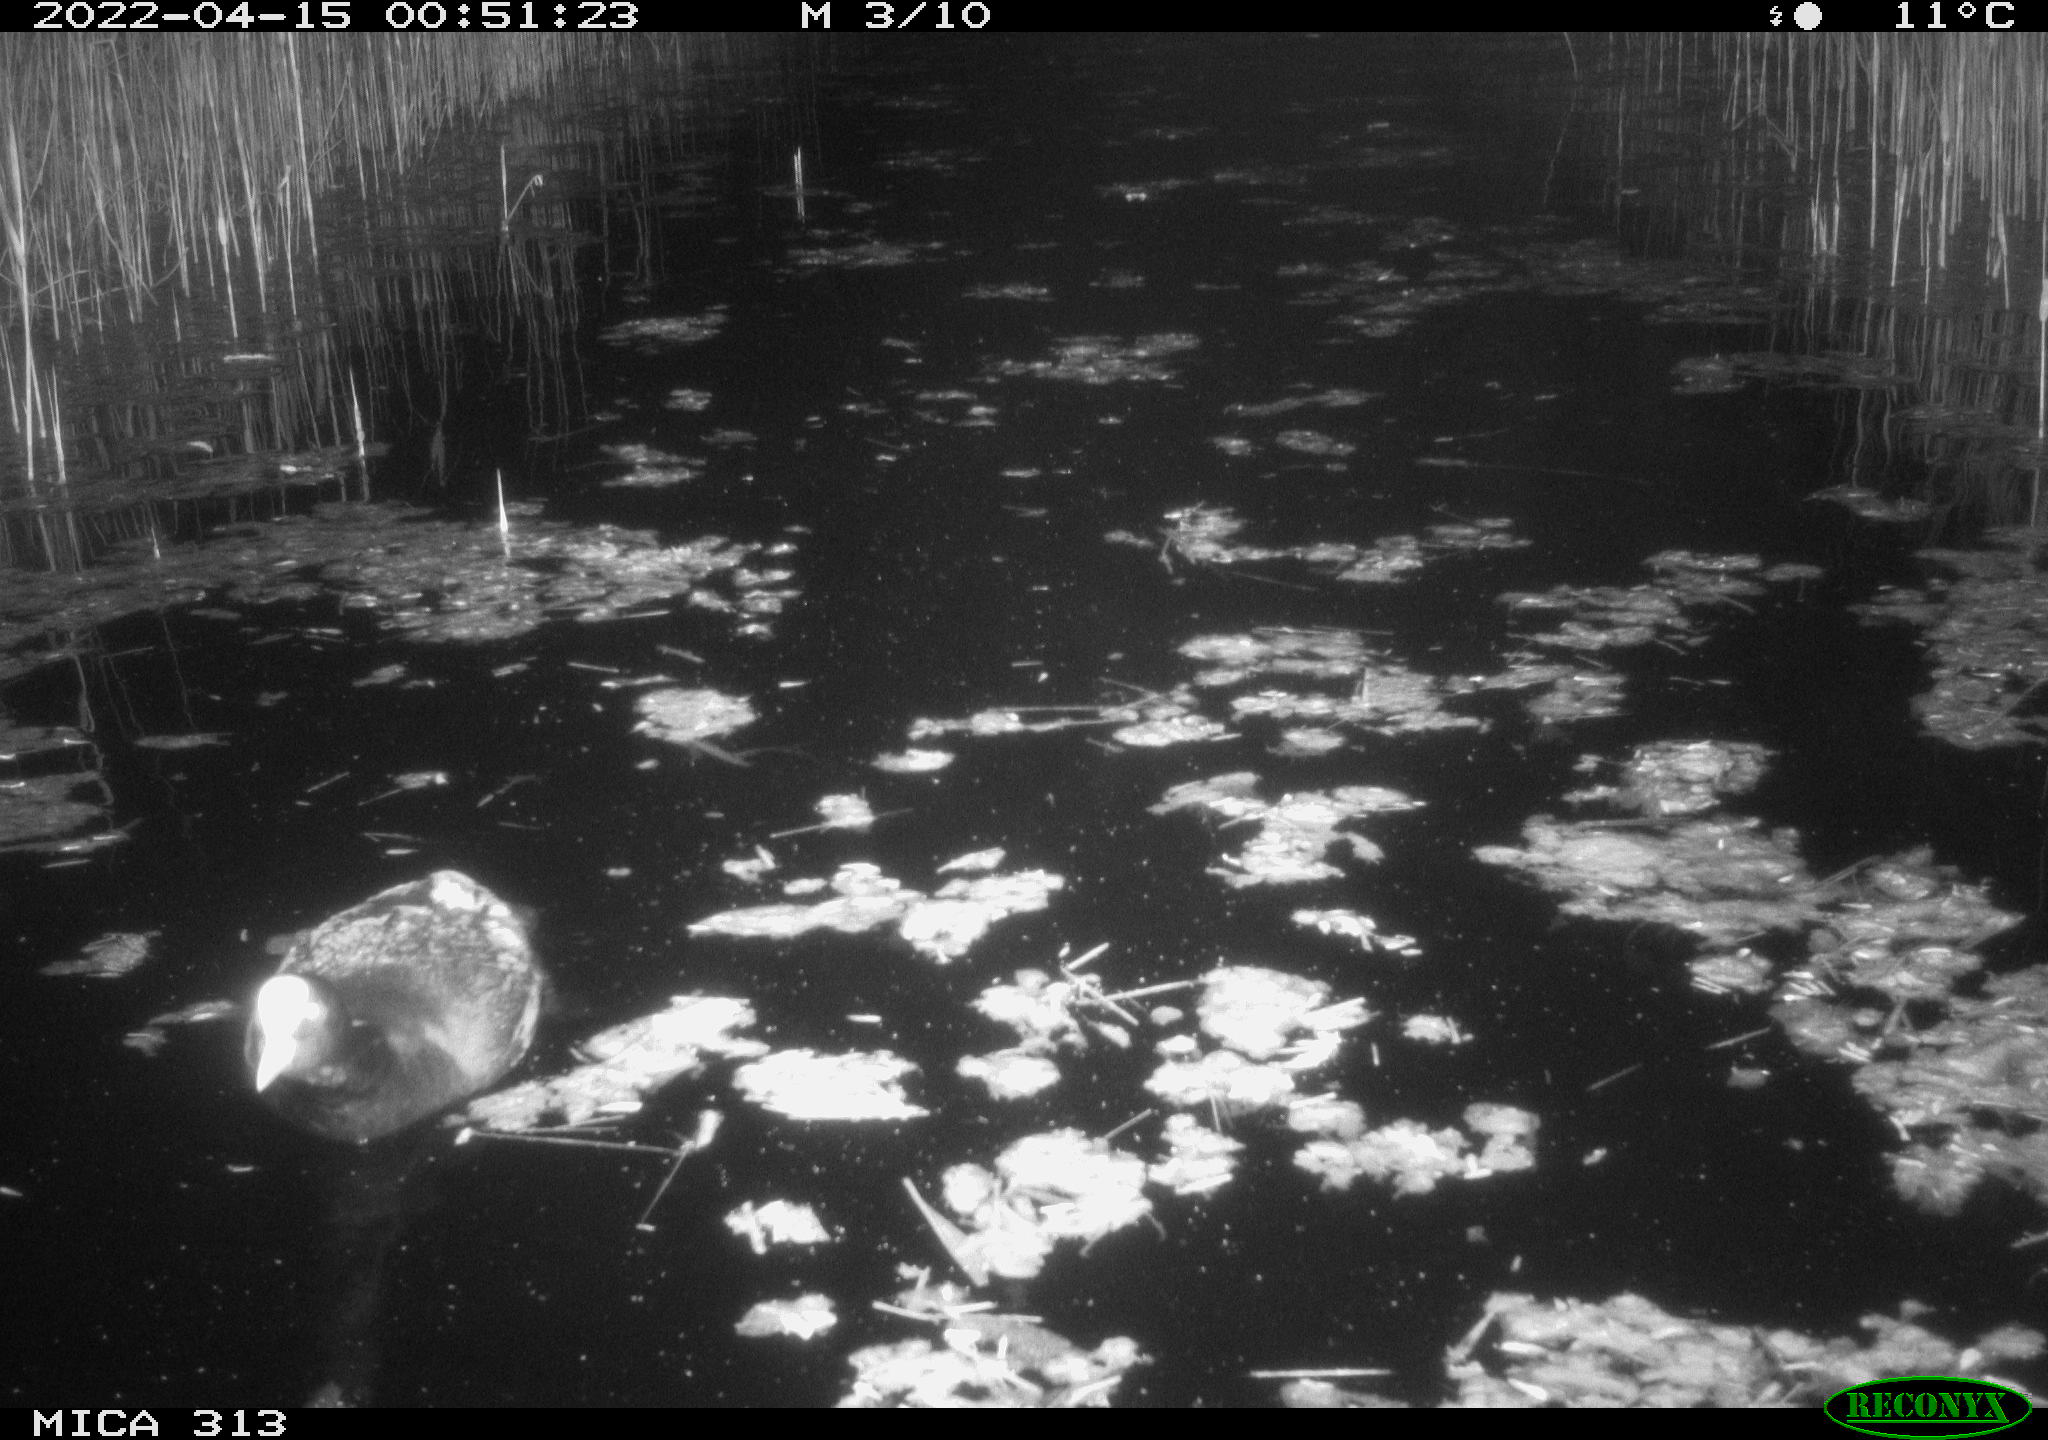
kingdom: Animalia
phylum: Chordata
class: Aves
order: Gruiformes
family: Rallidae
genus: Gallinula
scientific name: Gallinula chloropus
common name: Common moorhen
